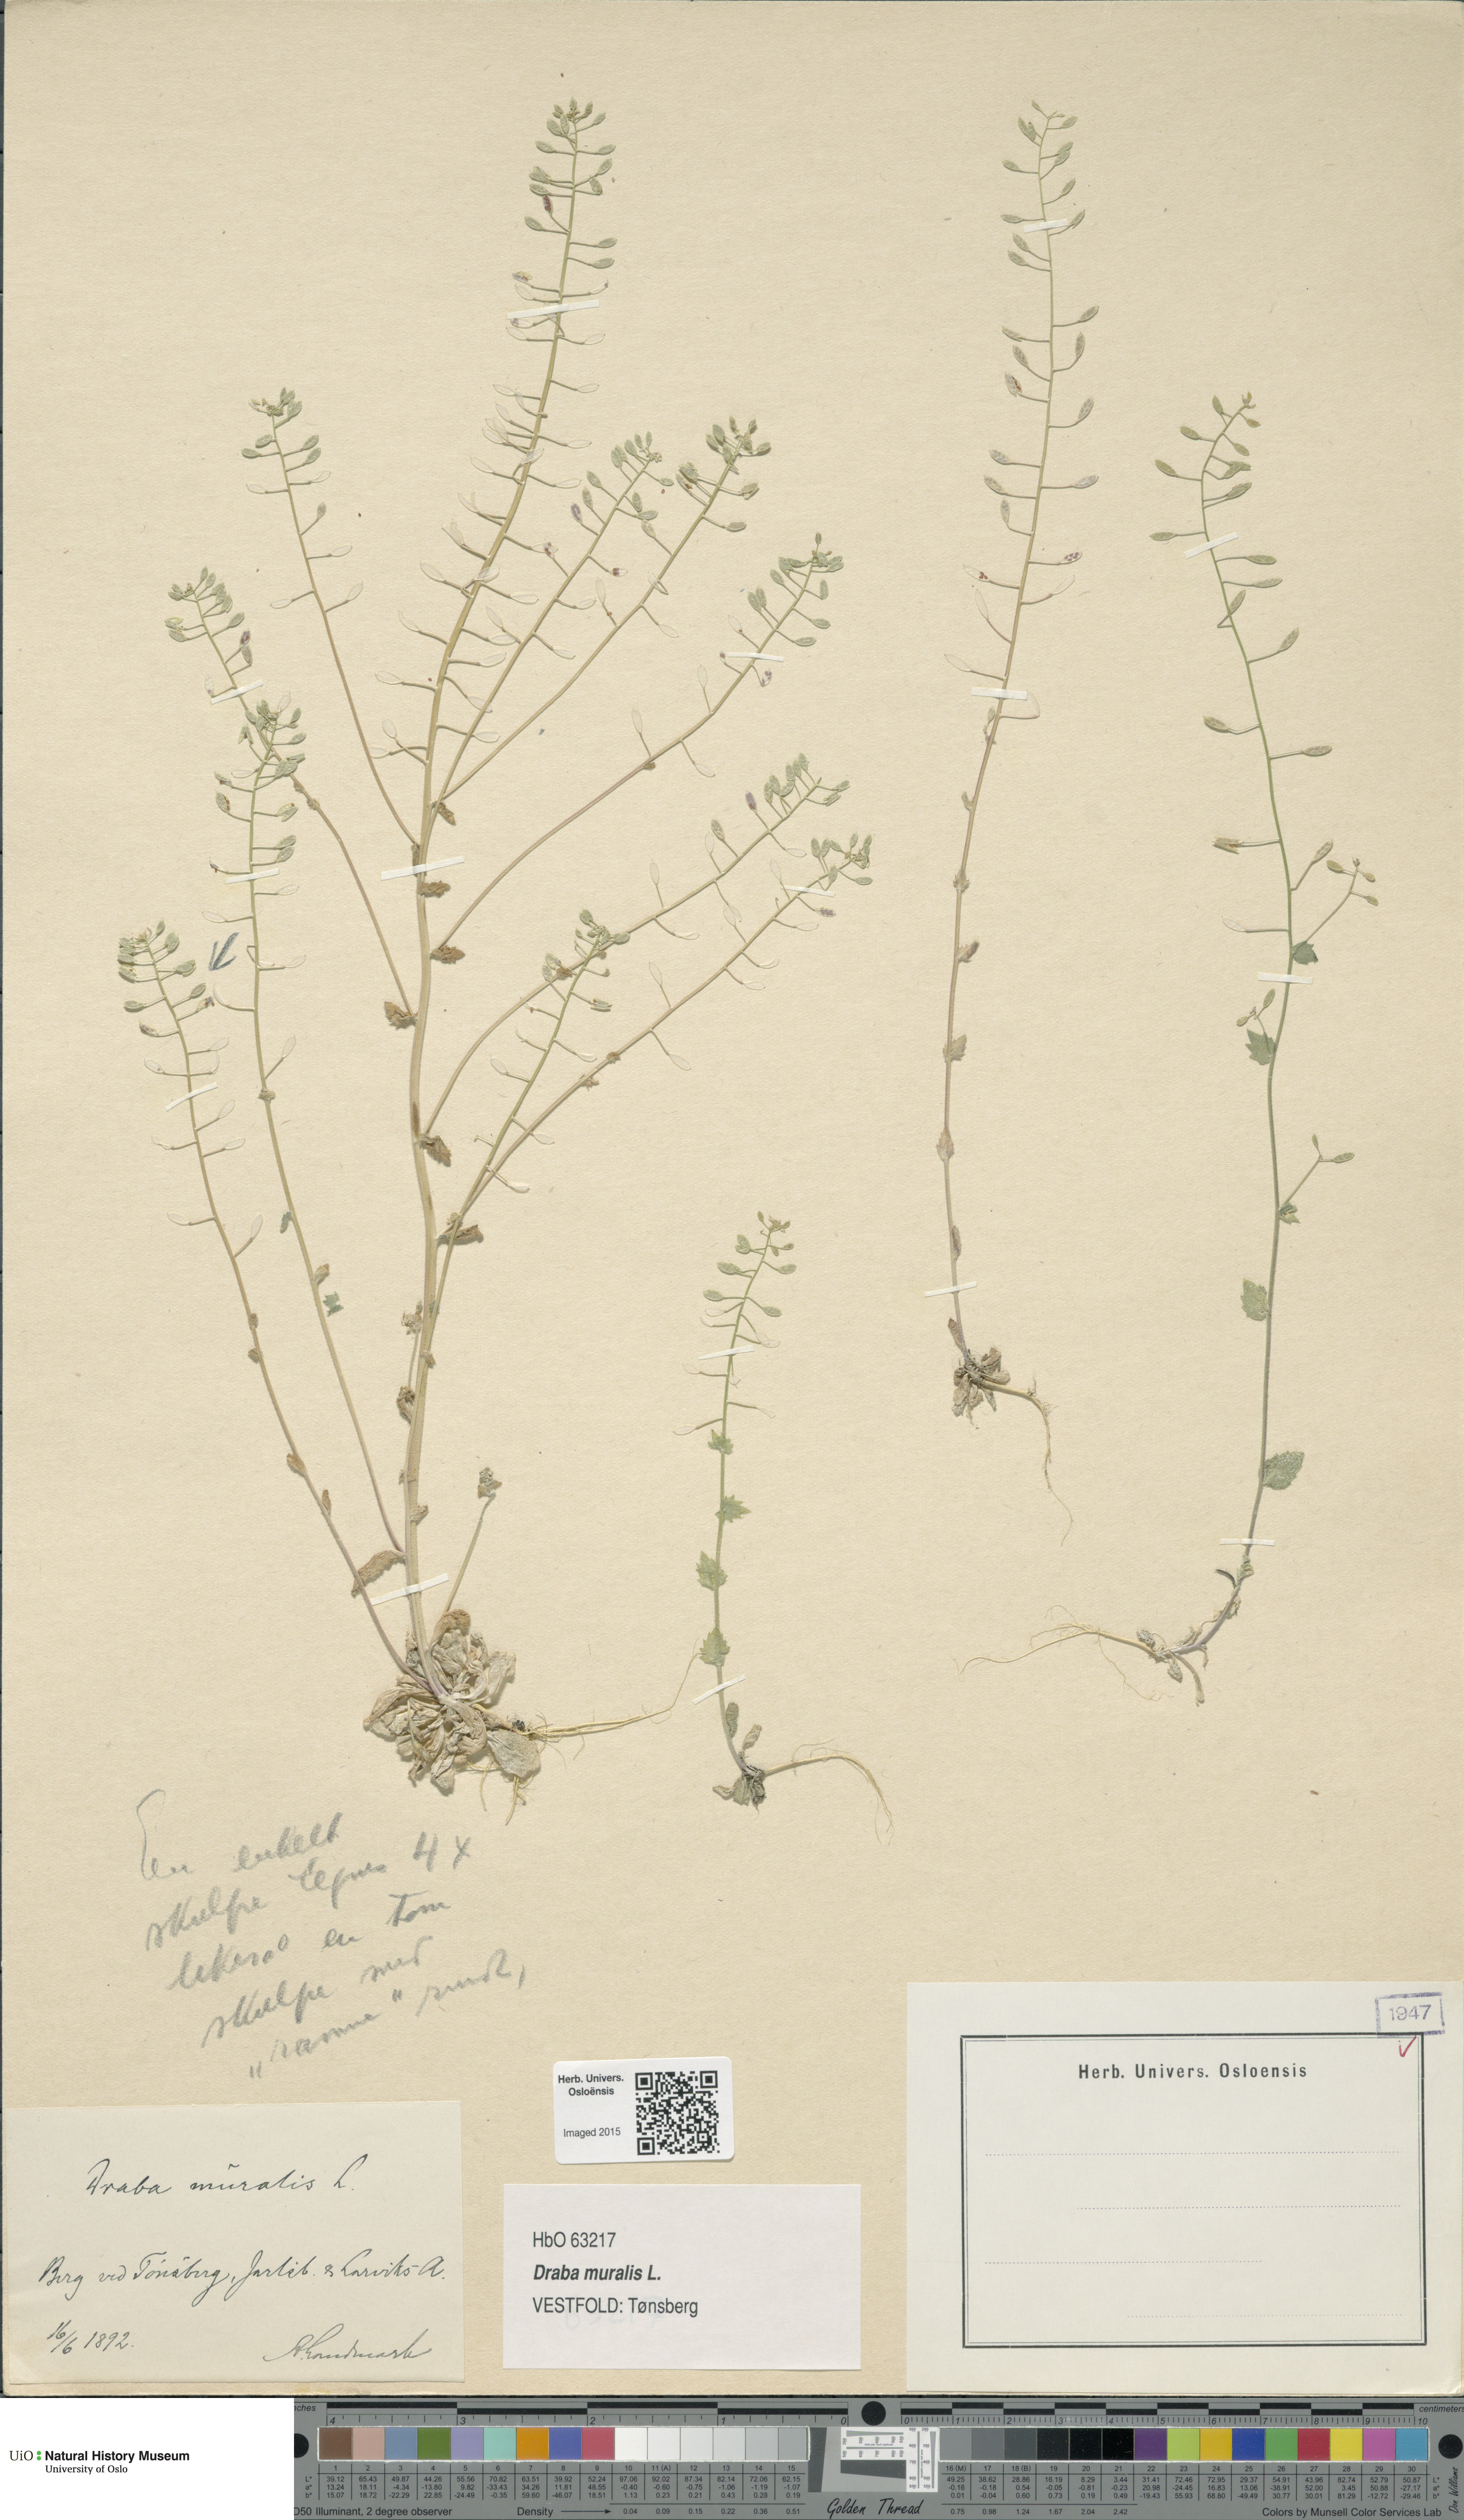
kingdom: Plantae
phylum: Tracheophyta
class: Magnoliopsida
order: Brassicales
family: Brassicaceae
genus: Drabella
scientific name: Drabella muralis
